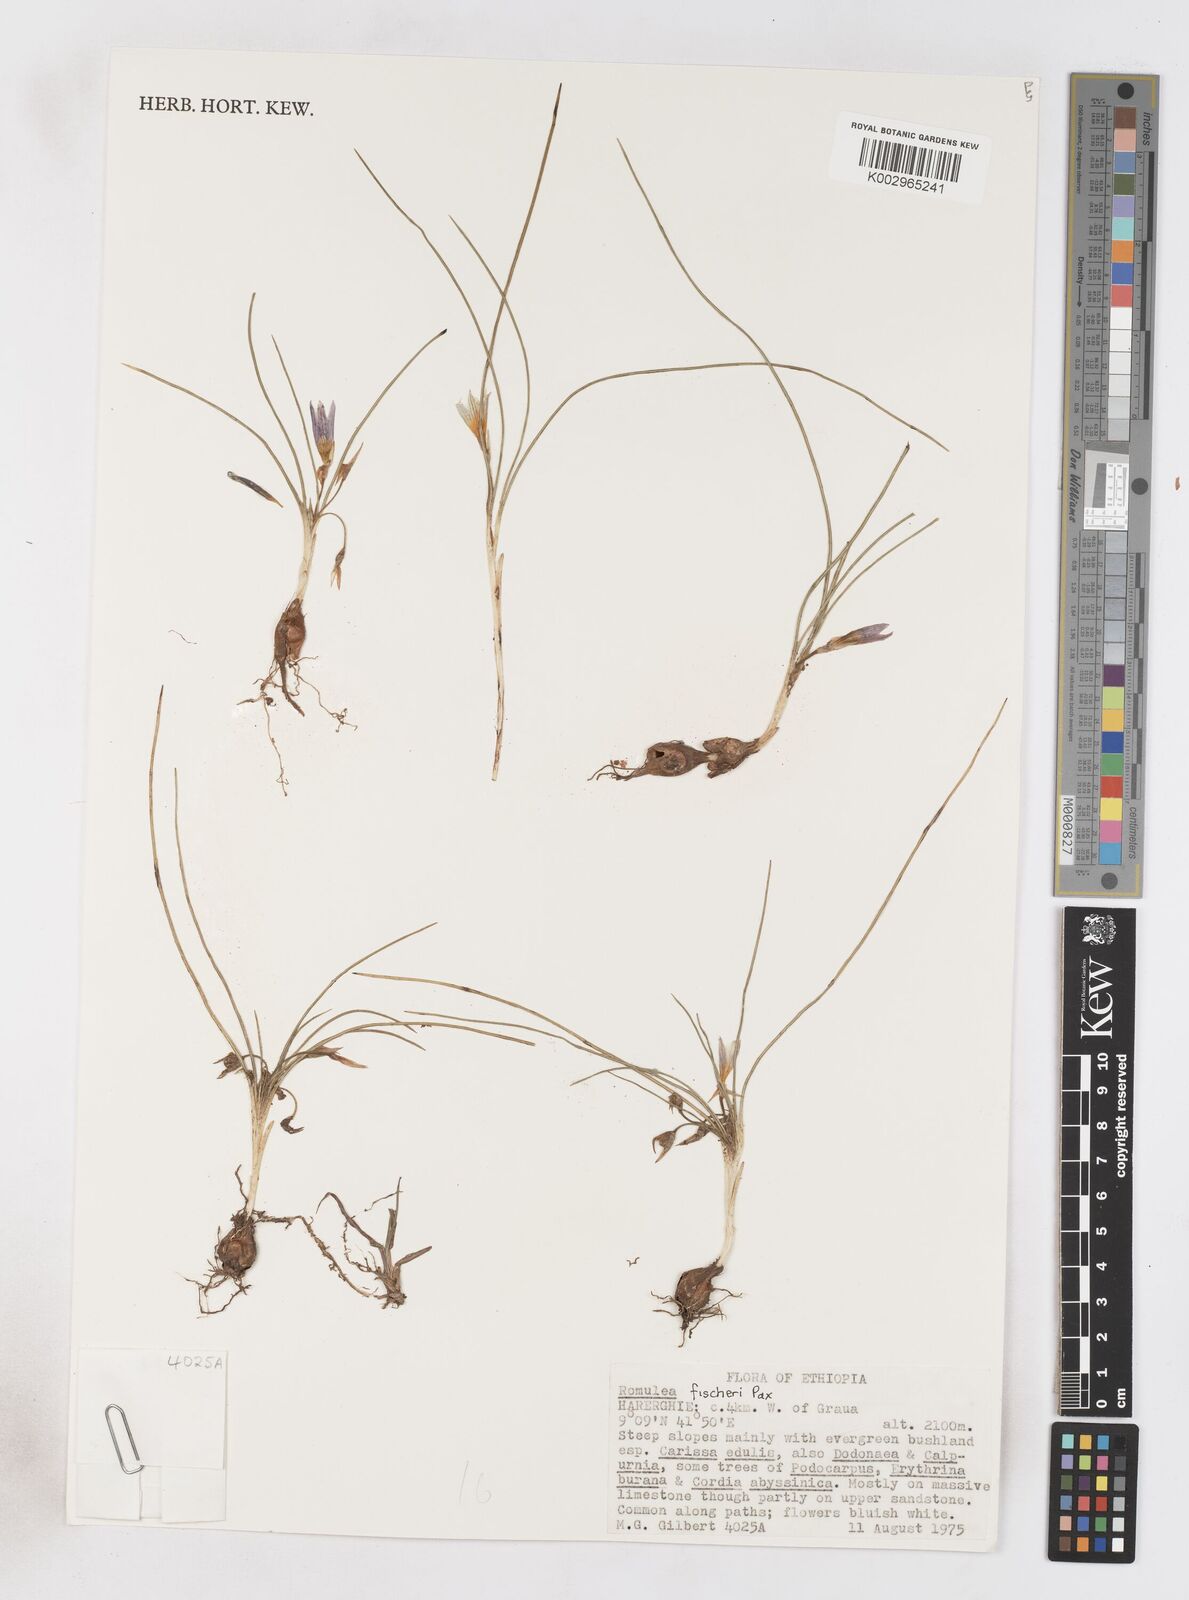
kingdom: Plantae
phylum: Tracheophyta
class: Liliopsida
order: Asparagales
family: Iridaceae
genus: Romulea
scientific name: Romulea fischeri
